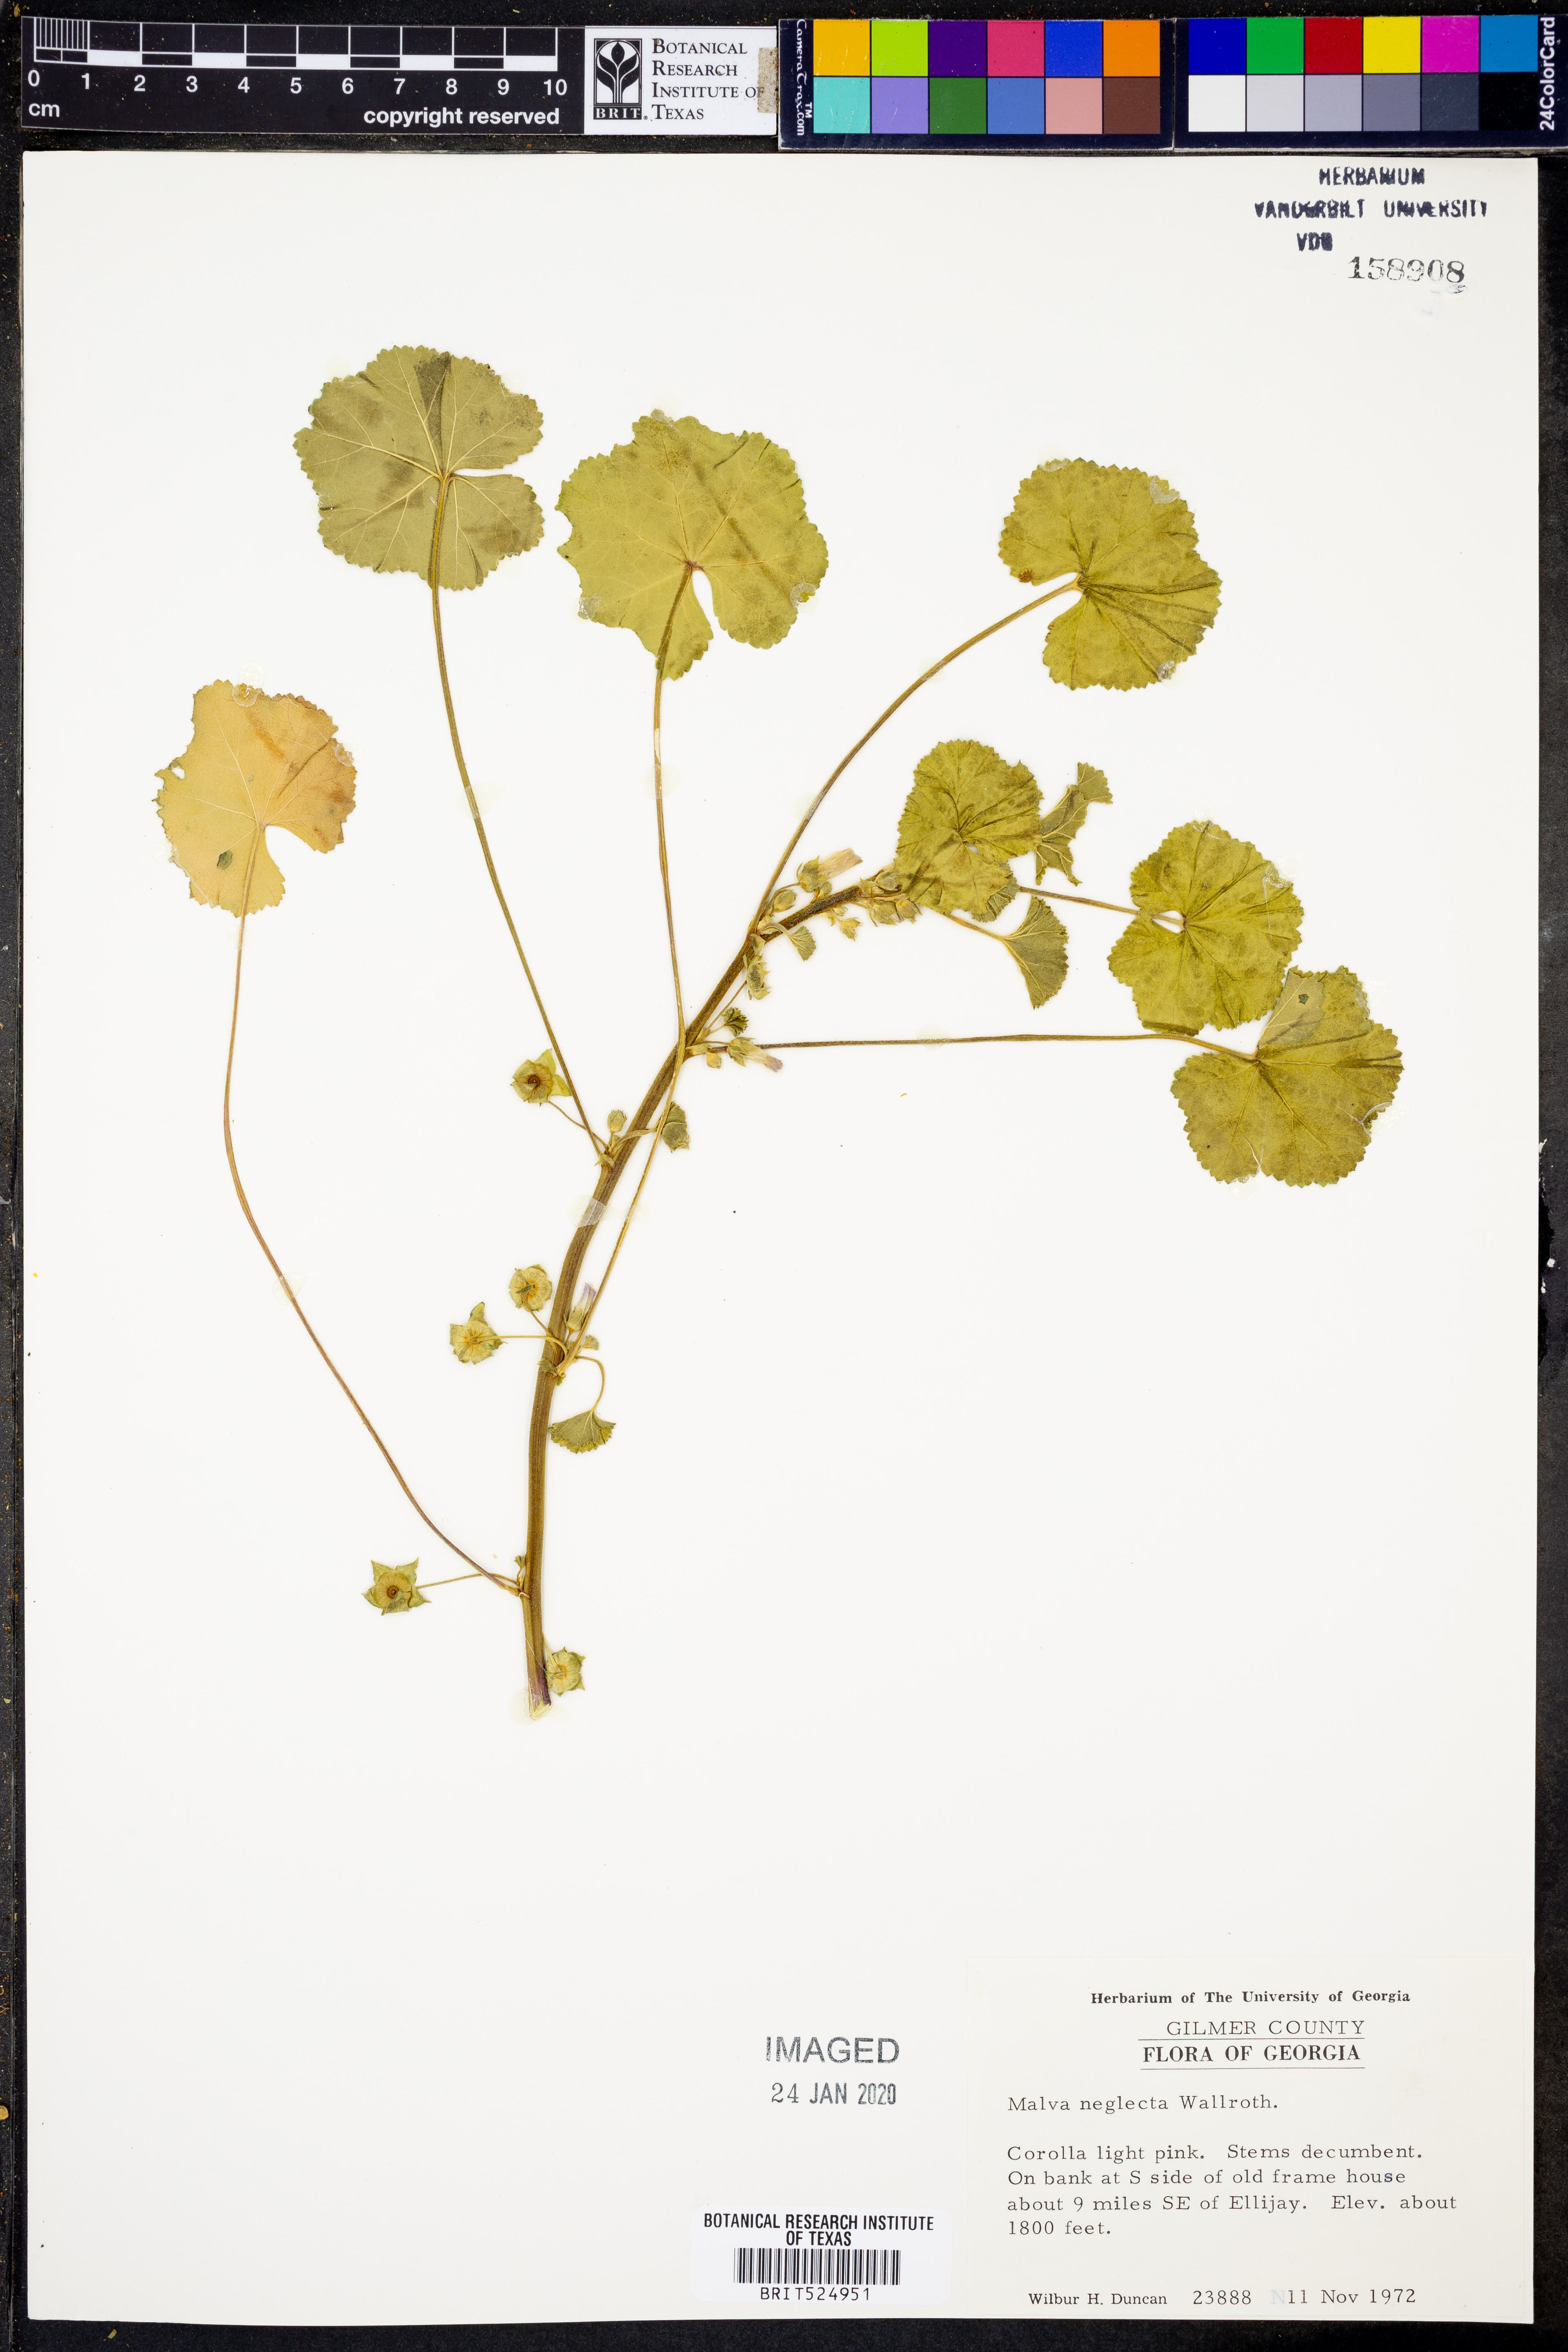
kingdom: Plantae
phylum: Tracheophyta
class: Magnoliopsida
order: Malvales
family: Malvaceae
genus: Malva
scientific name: Malva neglecta
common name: Common mallow
